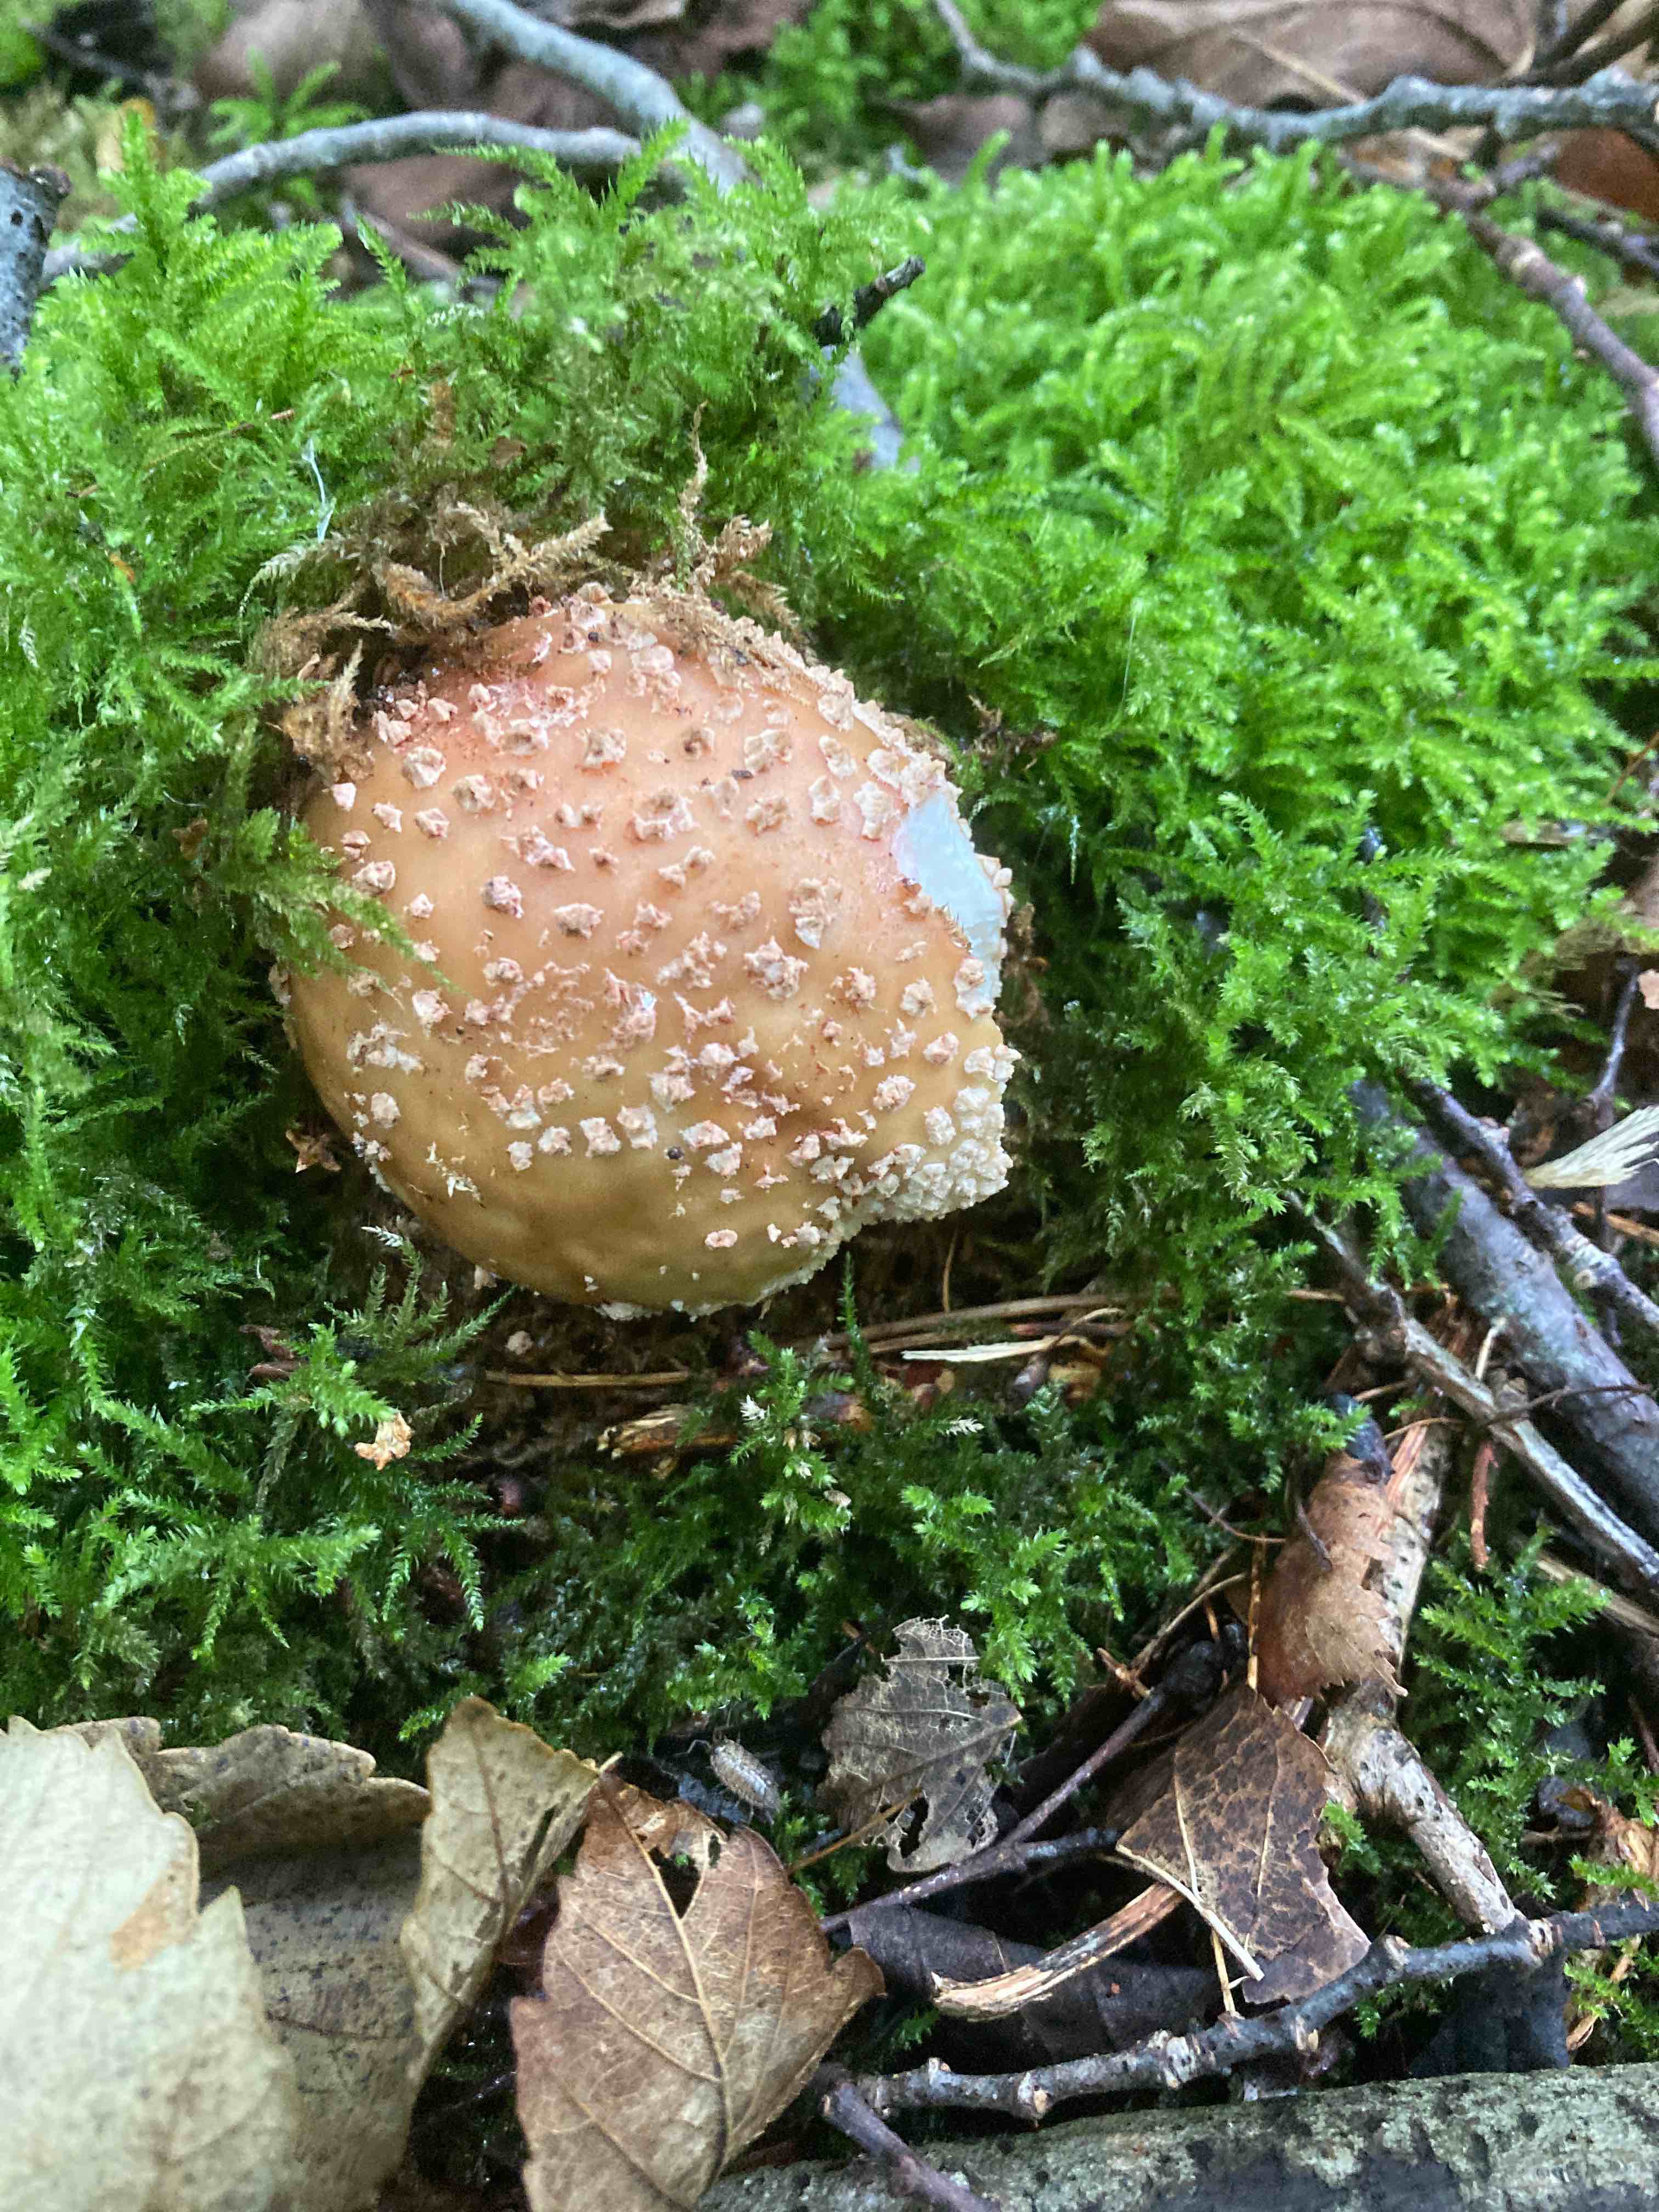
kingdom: Fungi
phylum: Basidiomycota
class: Agaricomycetes
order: Agaricales
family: Amanitaceae
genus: Amanita
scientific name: Amanita rubescens
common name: rødmende fluesvamp
